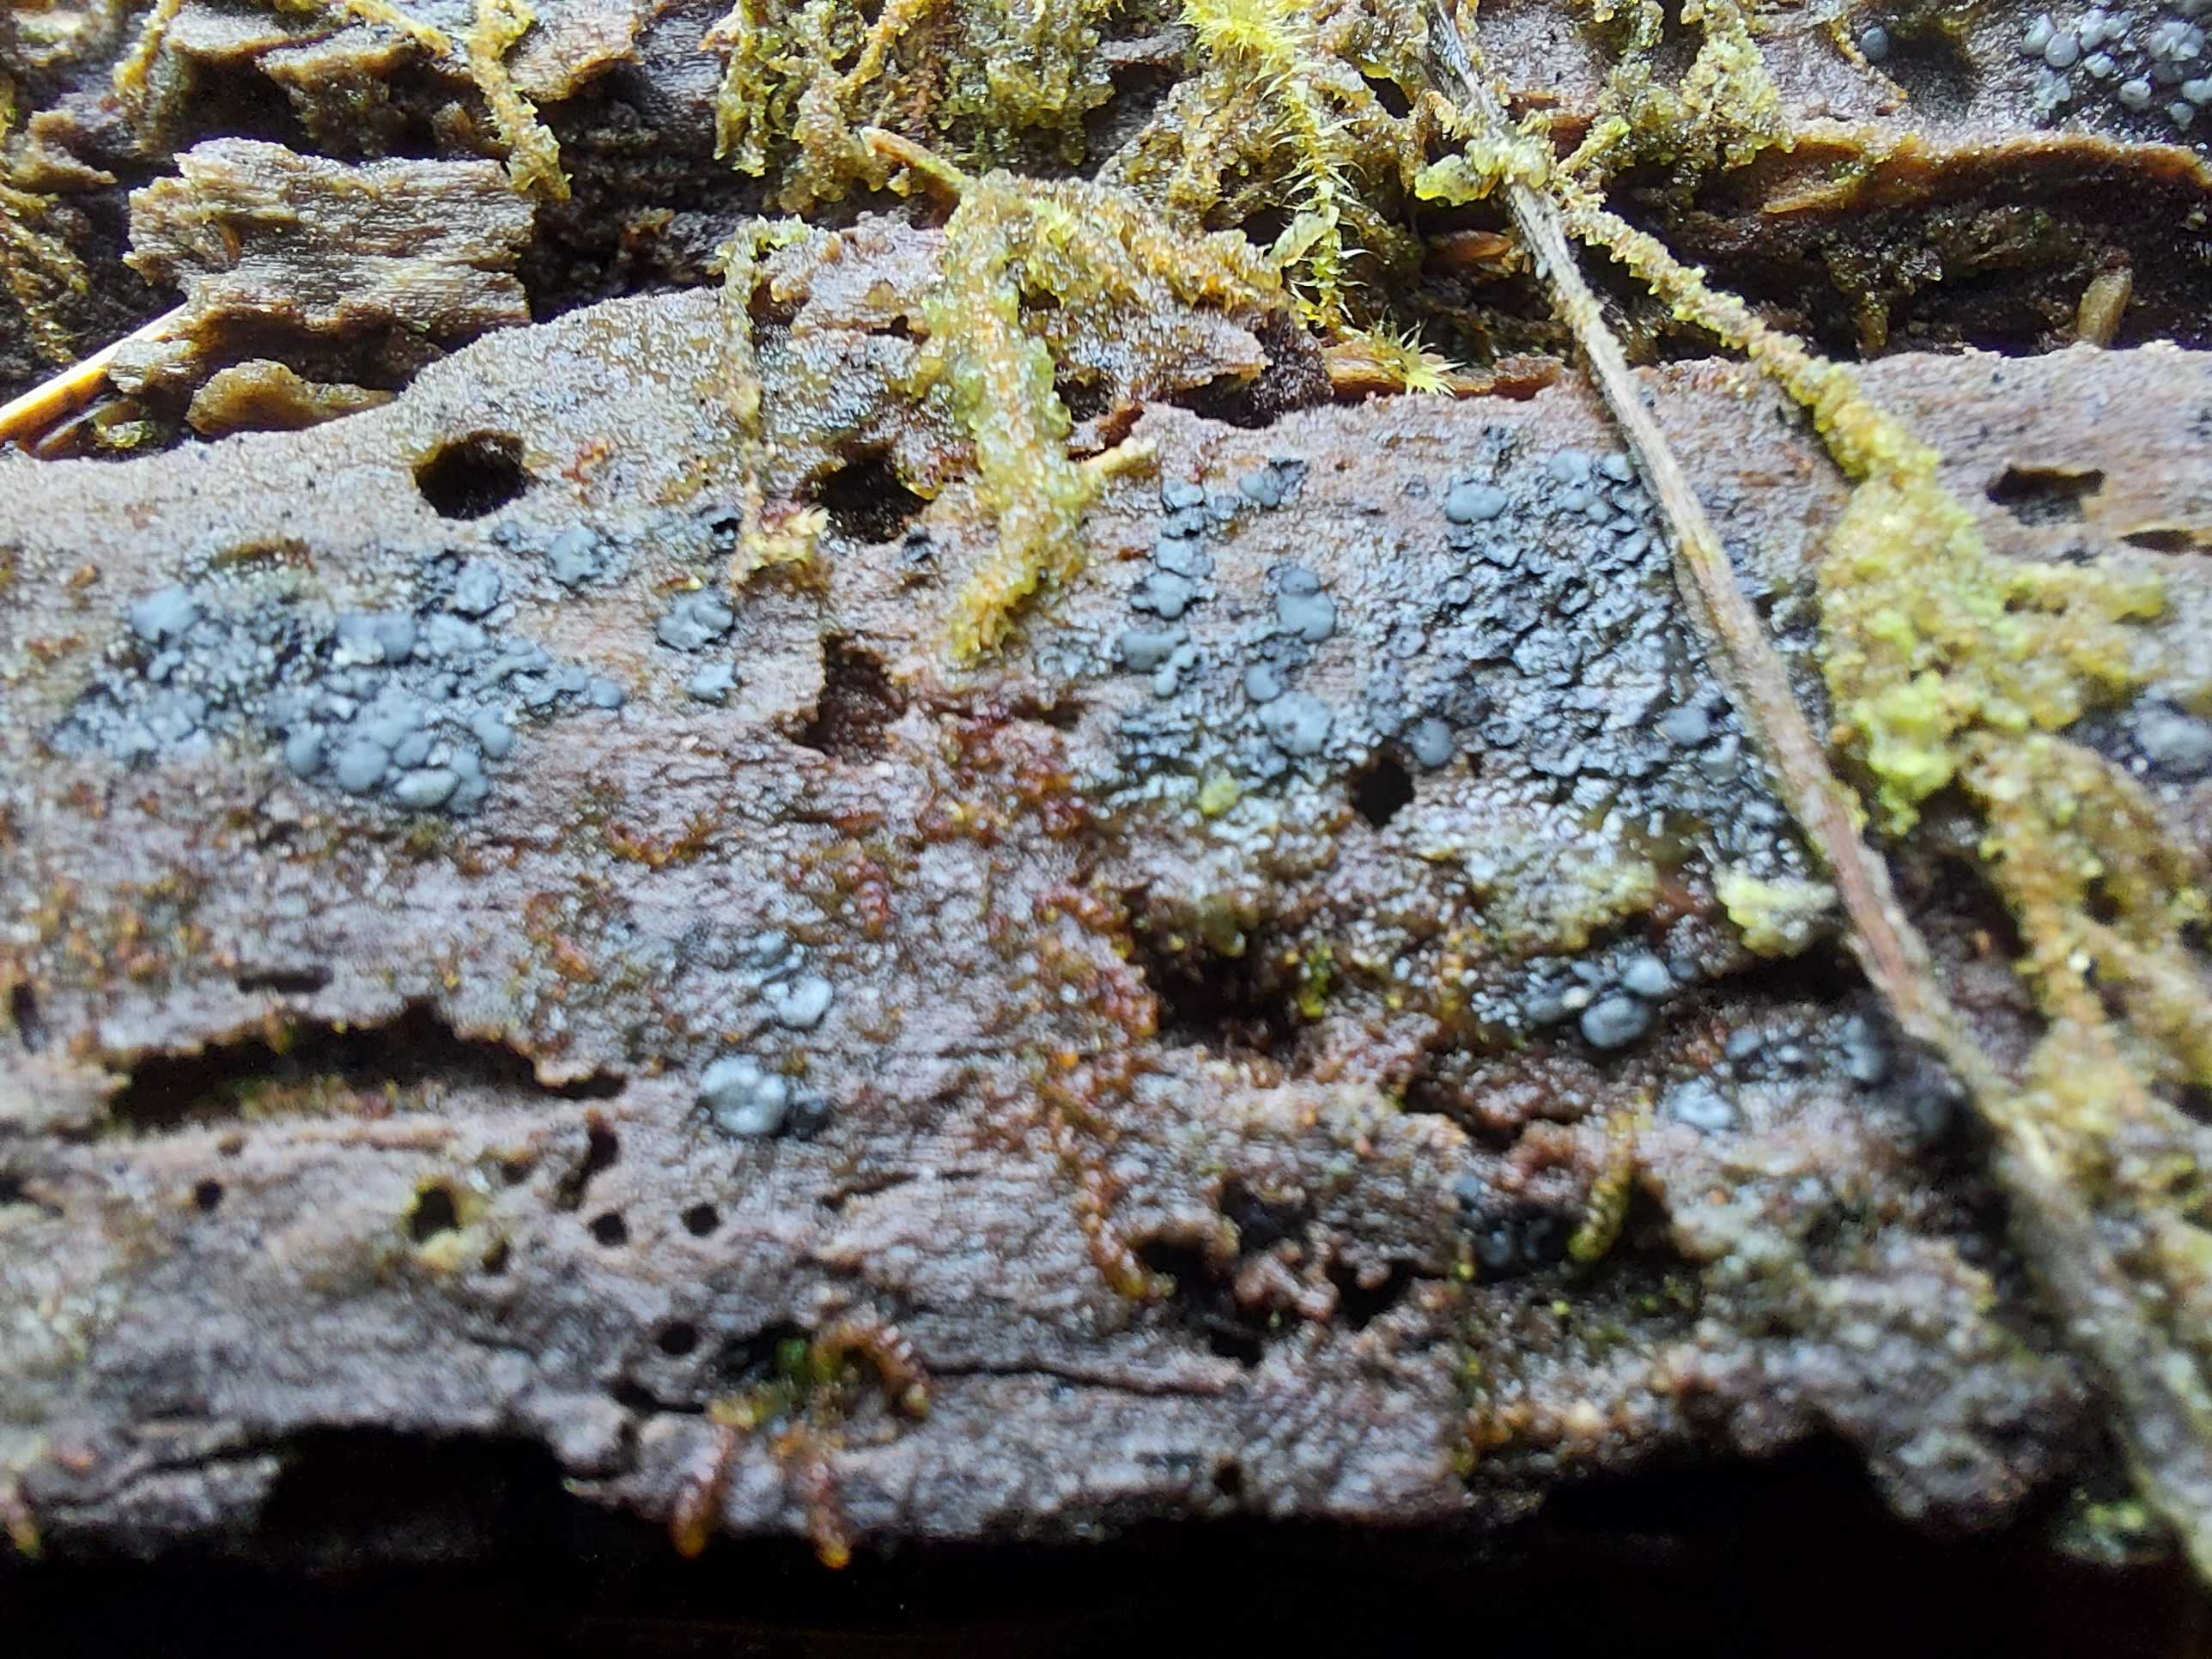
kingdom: Fungi
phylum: Ascomycota
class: Leotiomycetes
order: Helotiales
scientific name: Helotiales
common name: stilkskiveordenen
